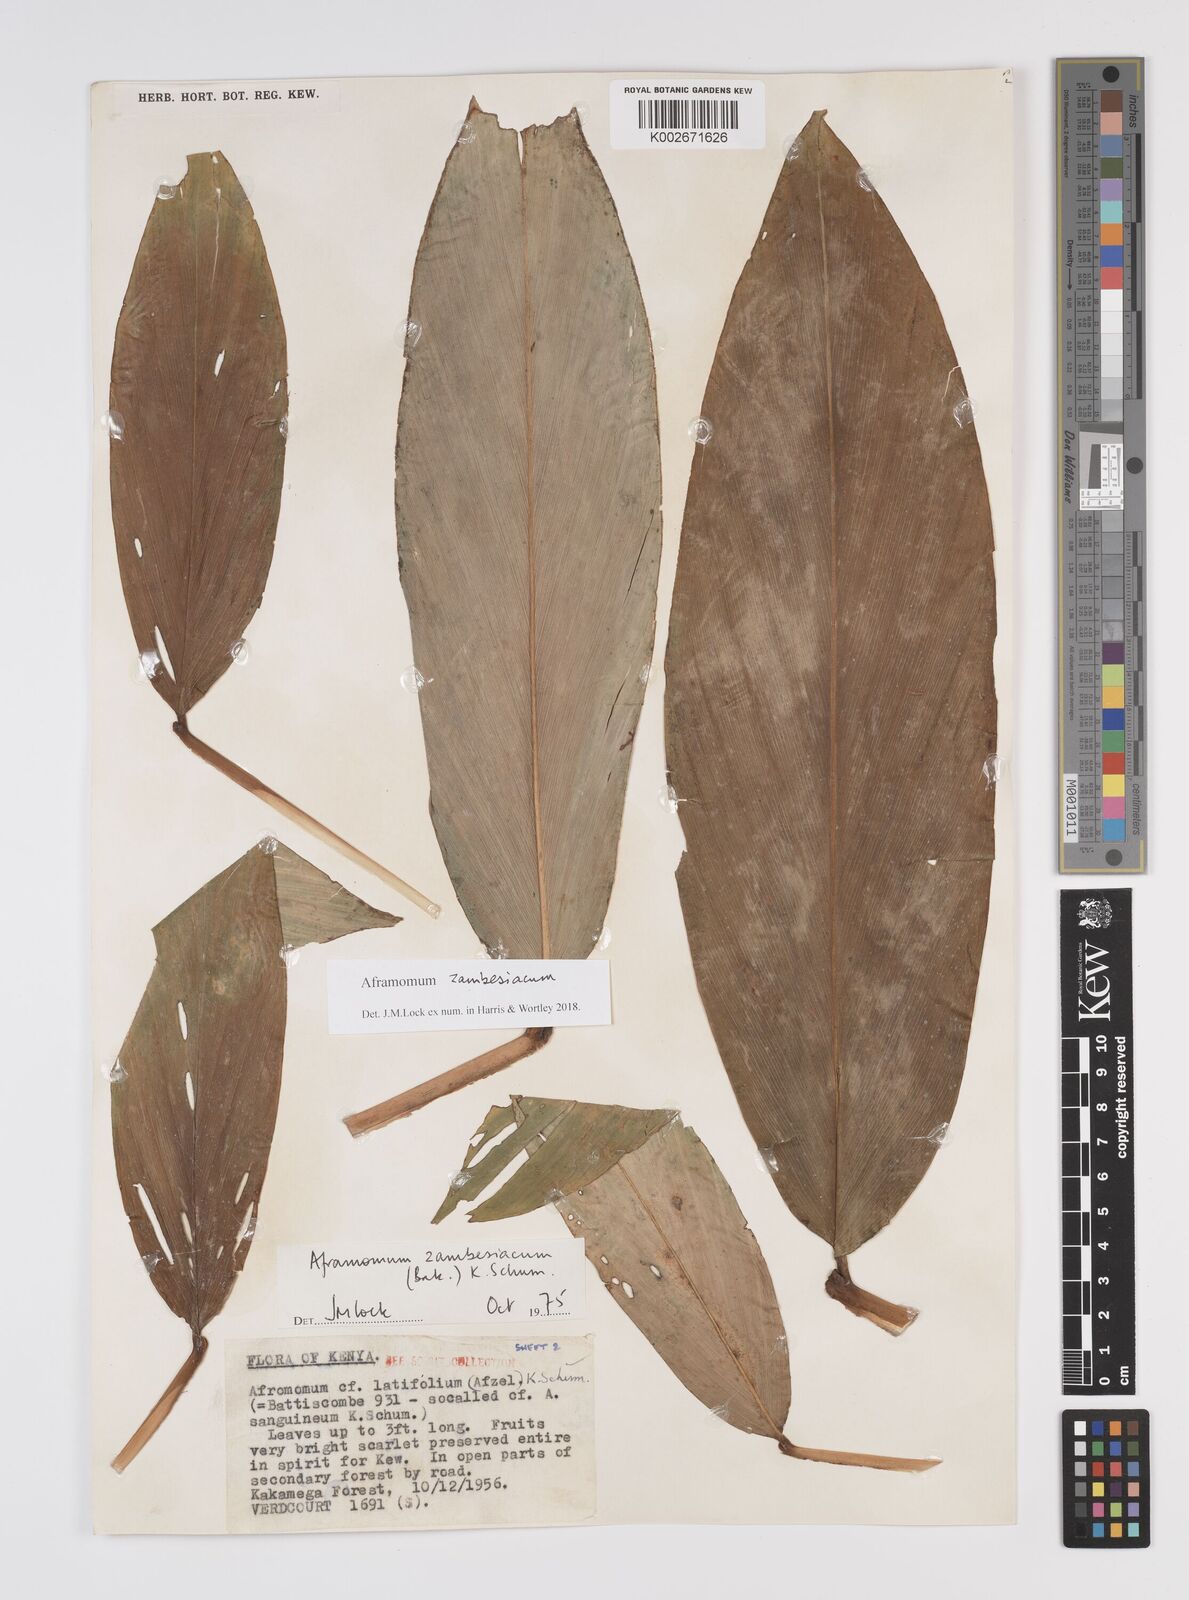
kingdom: Plantae
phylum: Tracheophyta
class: Liliopsida
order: Zingiberales
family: Zingiberaceae
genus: Aframomum
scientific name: Aframomum zambesiacum
